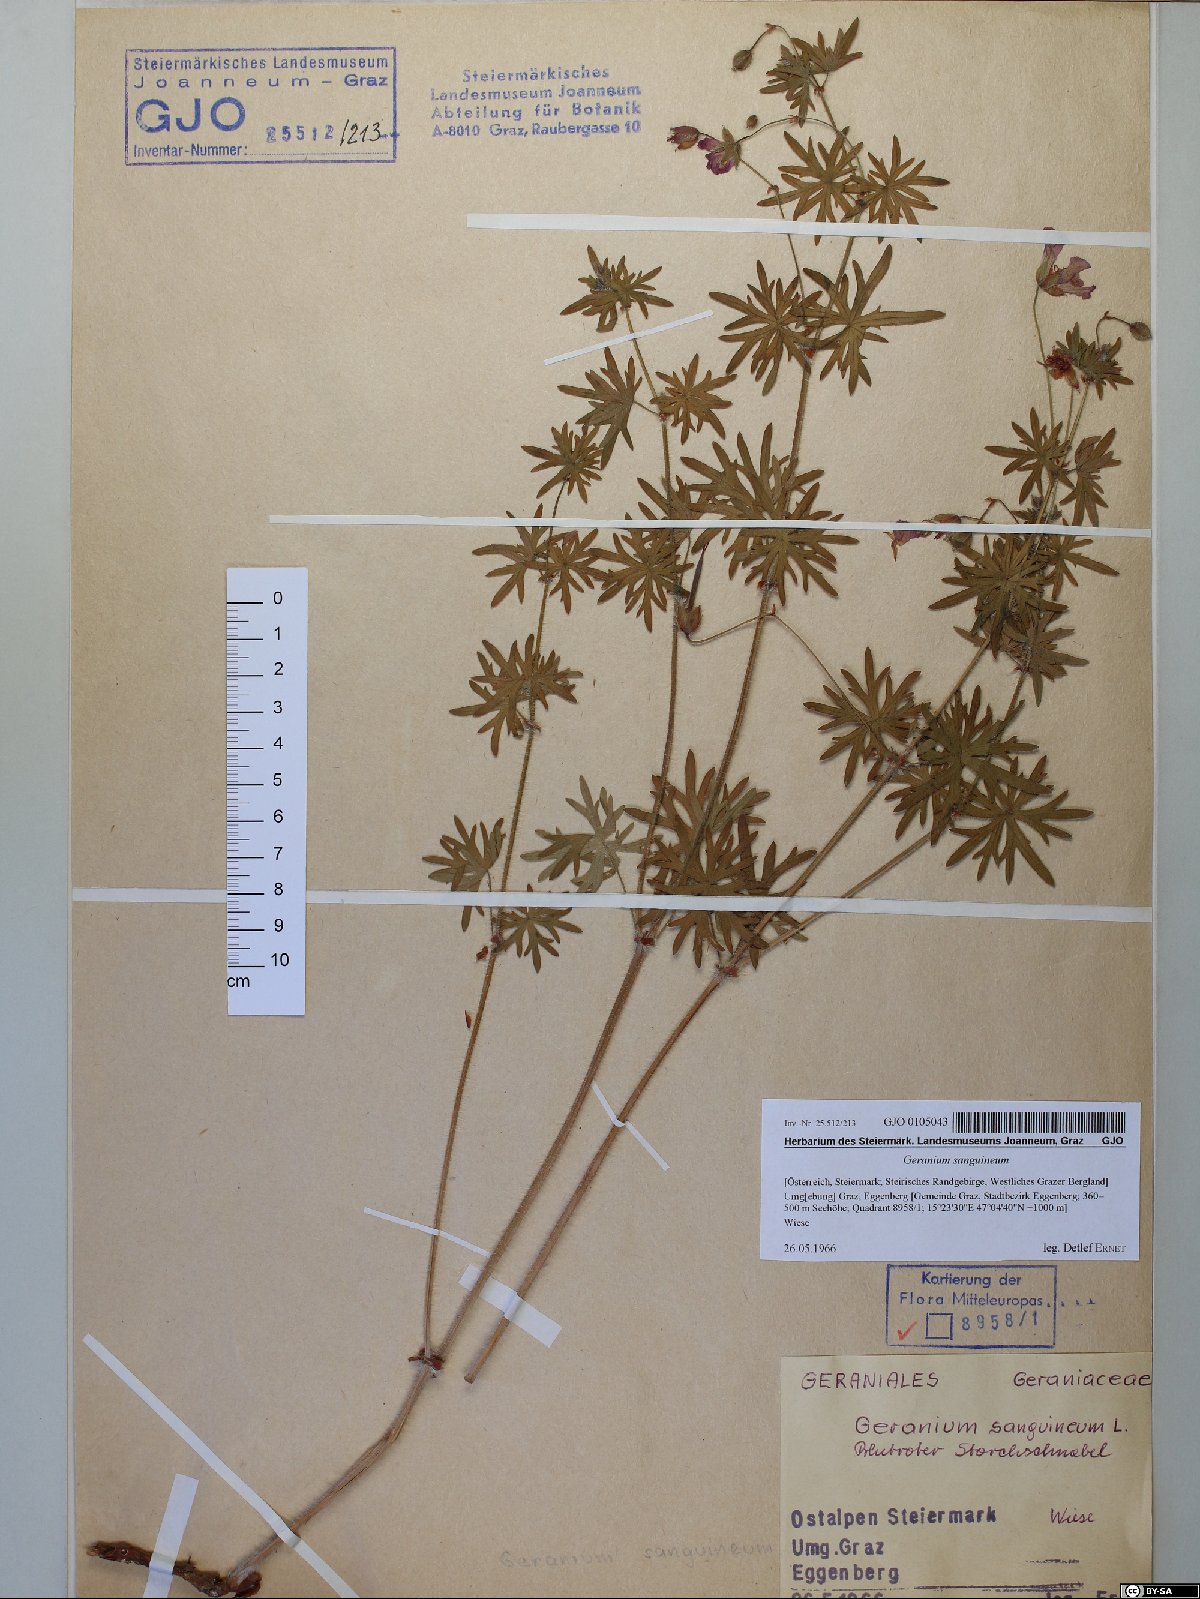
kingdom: Plantae
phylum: Tracheophyta
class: Magnoliopsida
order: Geraniales
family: Geraniaceae
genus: Geranium
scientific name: Geranium sanguineum
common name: Bloody crane's-bill
